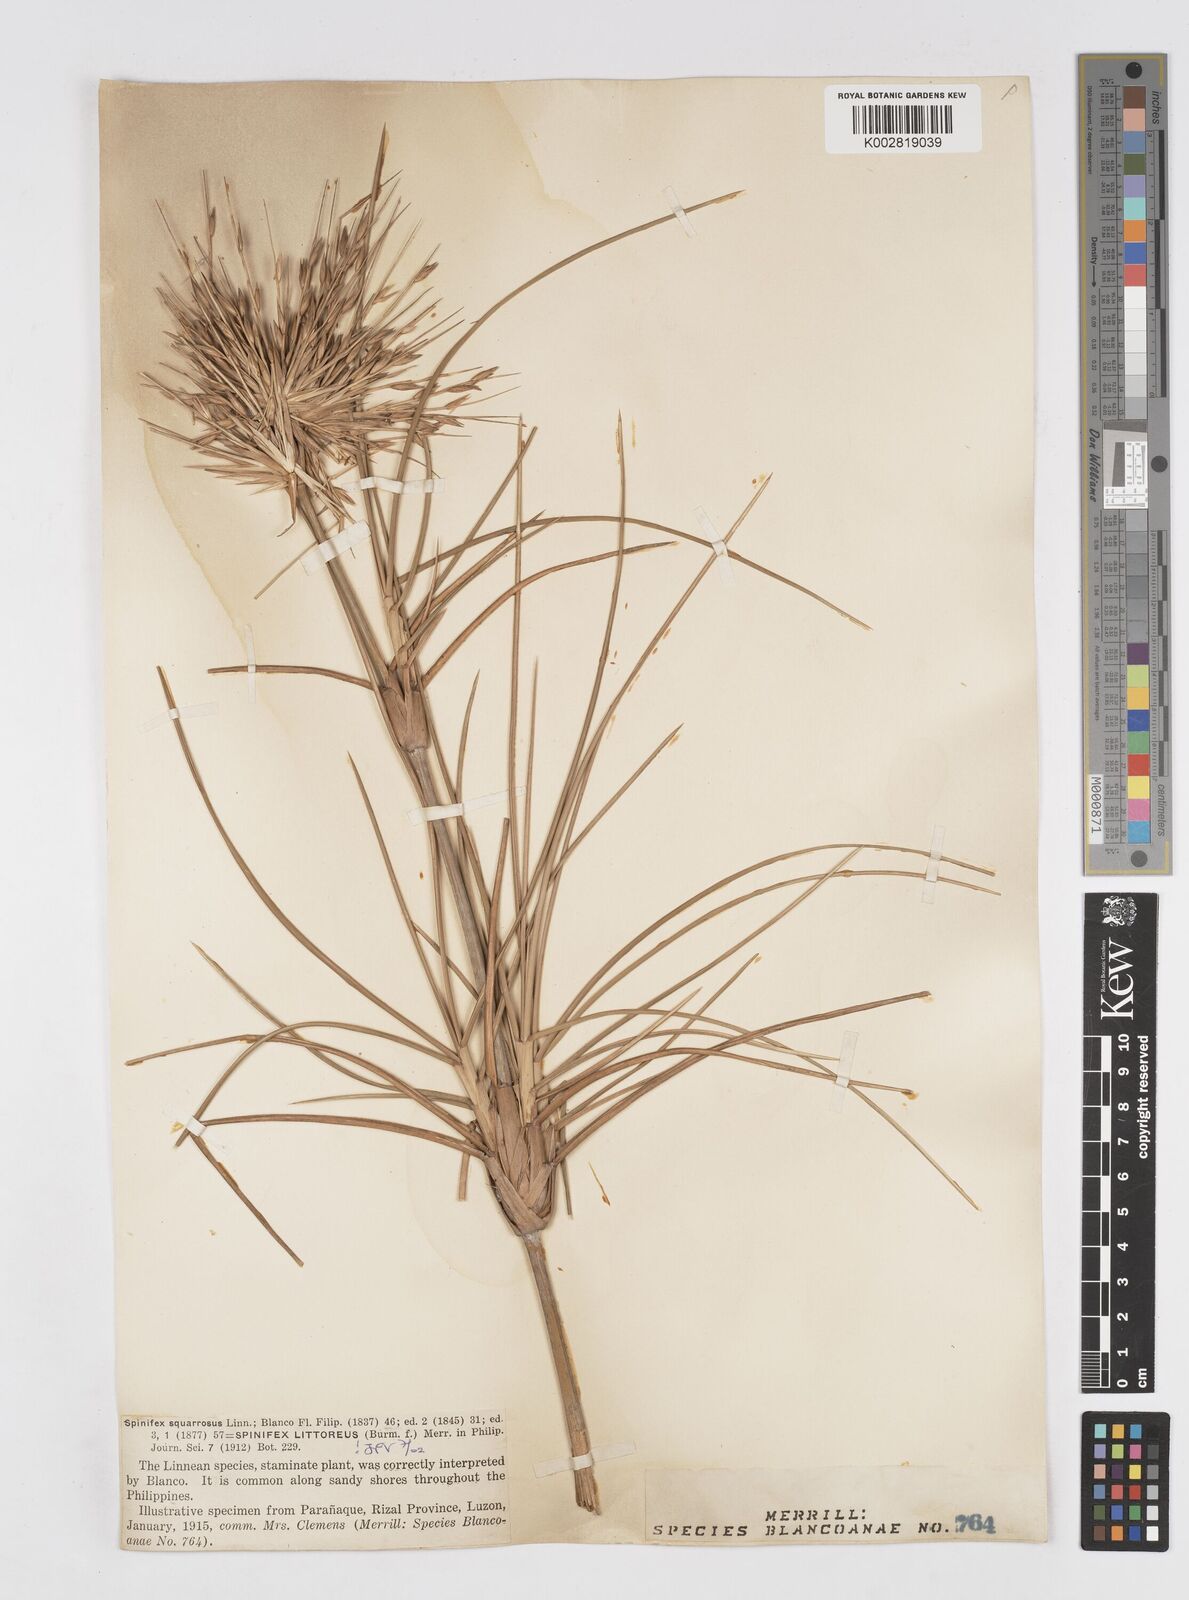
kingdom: Plantae
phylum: Tracheophyta
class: Liliopsida
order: Poales
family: Poaceae
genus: Spinifex
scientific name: Spinifex littoreus
